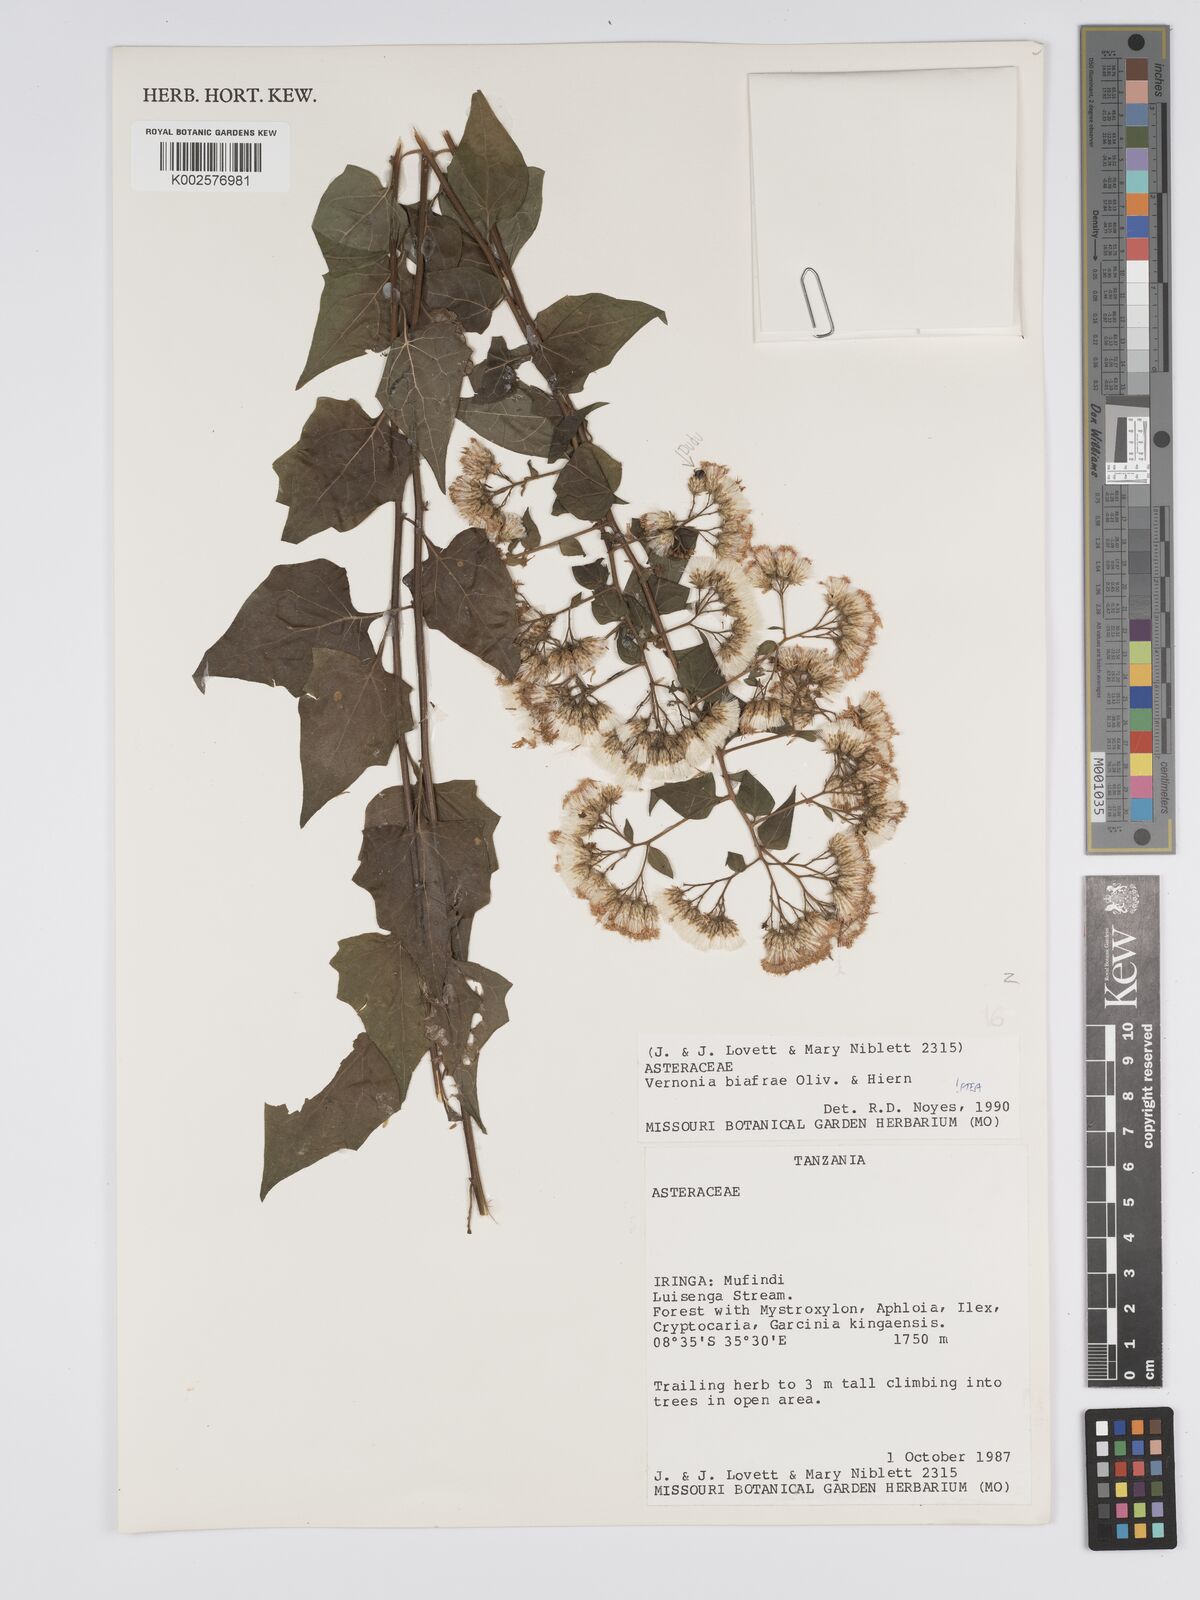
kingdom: Plantae
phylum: Tracheophyta
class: Magnoliopsida
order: Asterales
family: Asteraceae
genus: Distephanus
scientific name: Distephanus biafrae
